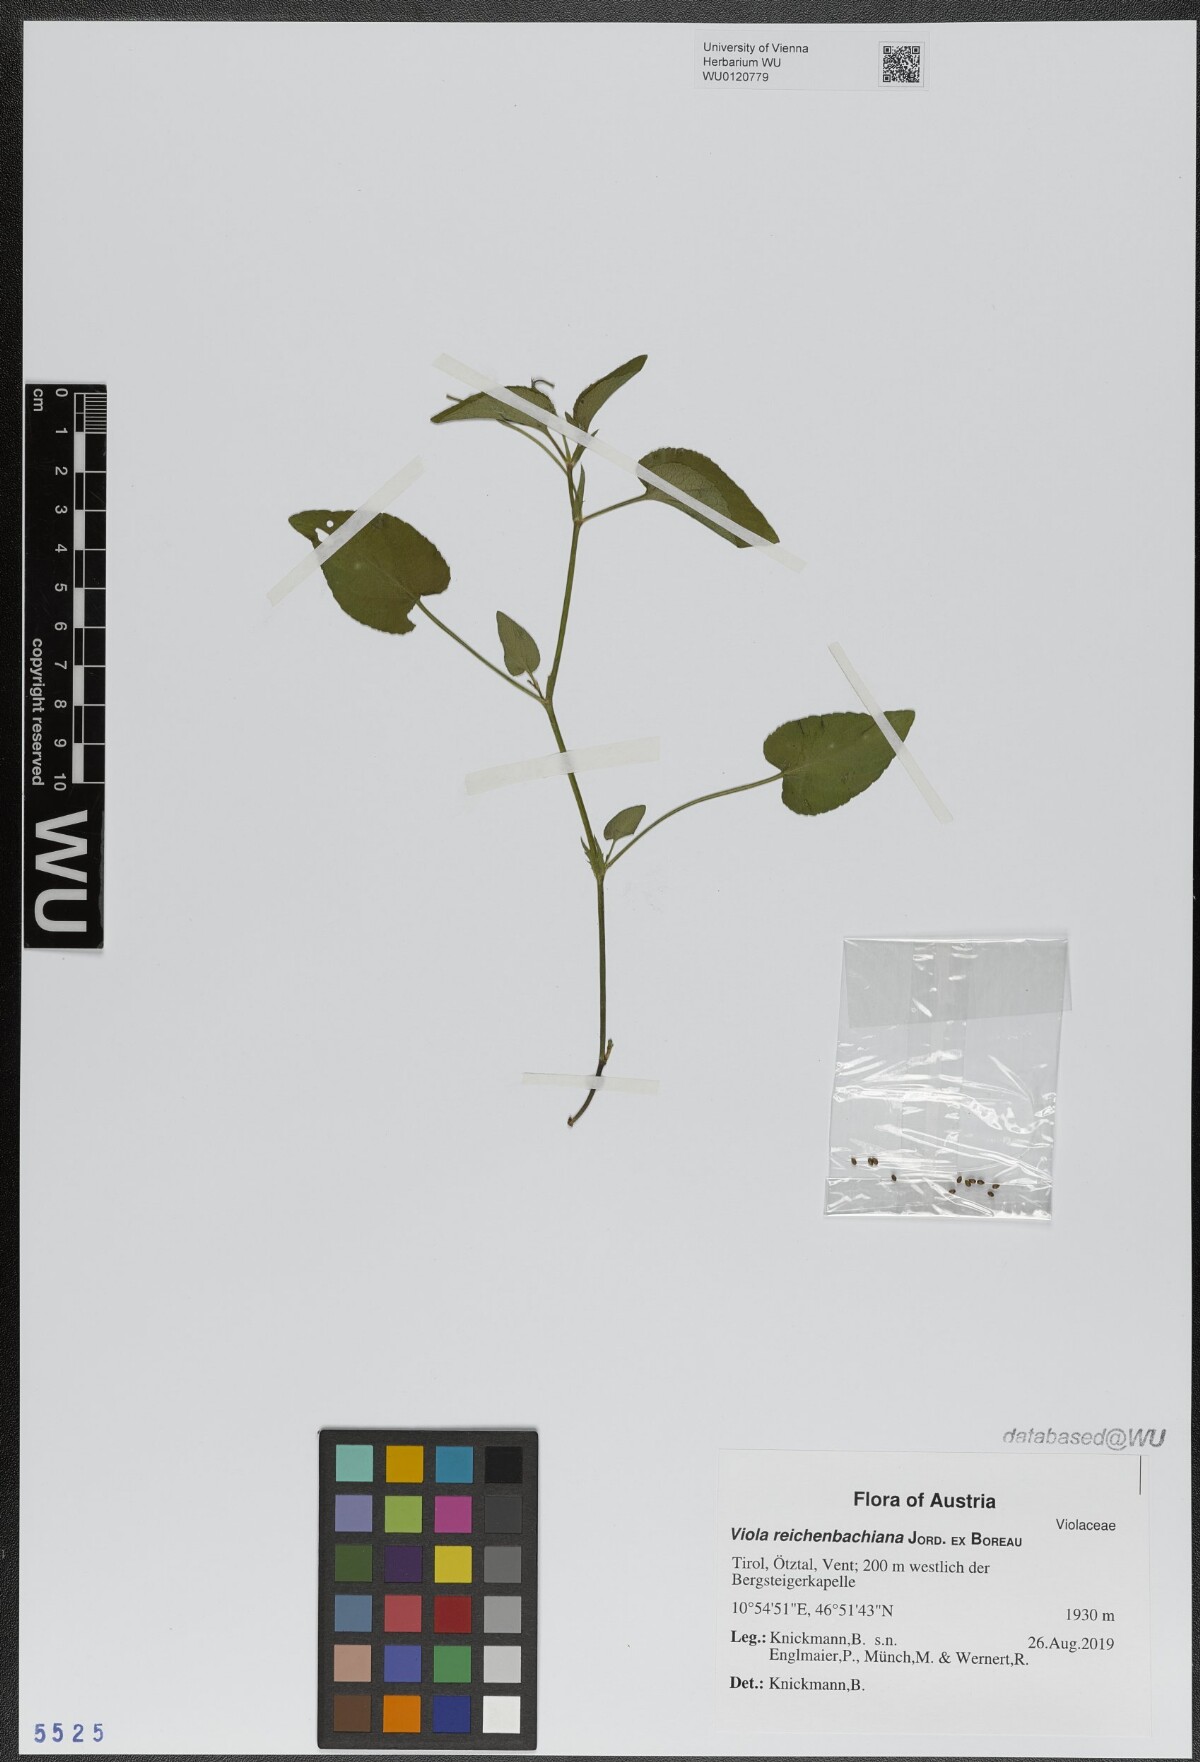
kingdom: Plantae
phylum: Tracheophyta
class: Magnoliopsida
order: Malpighiales
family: Violaceae
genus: Viola
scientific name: Viola reichenbachiana
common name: Early dog-violet
